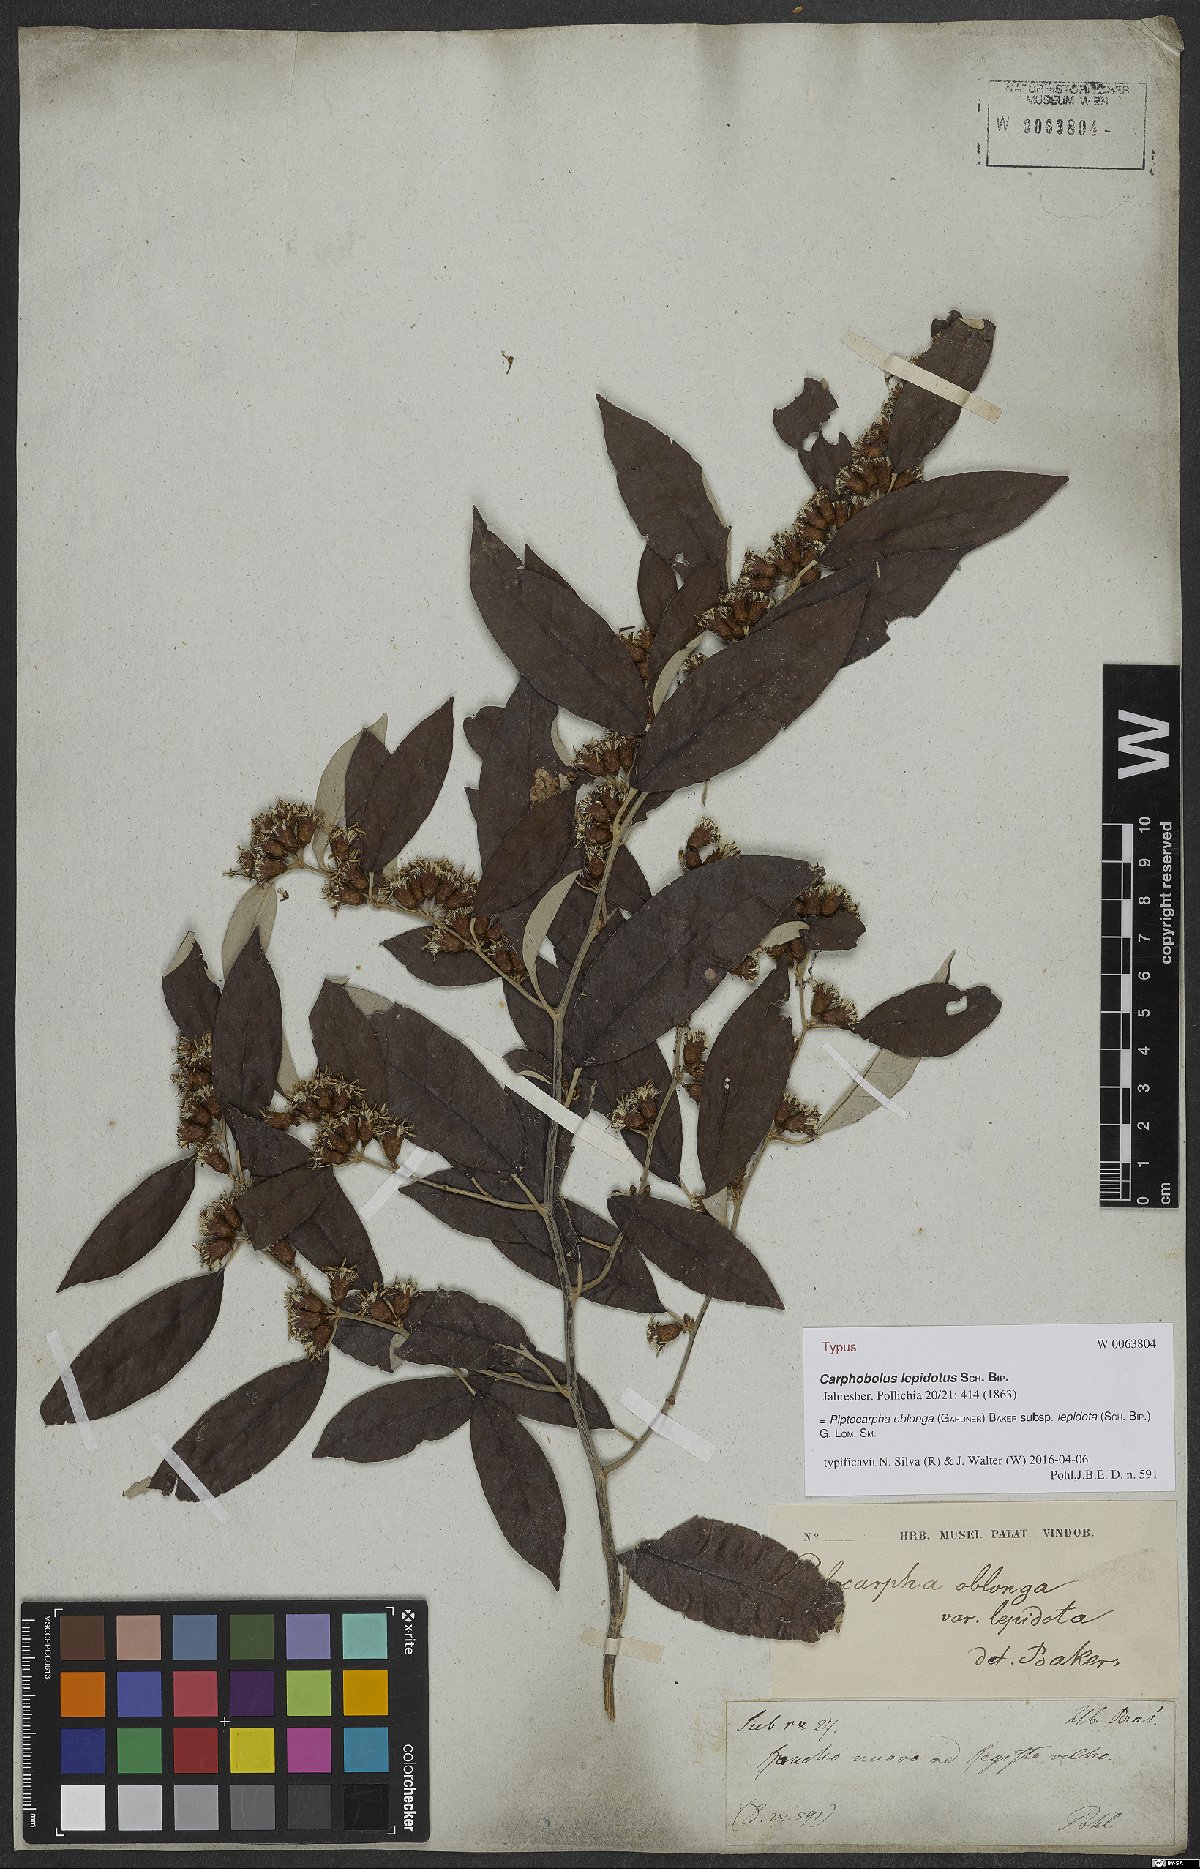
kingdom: Plantae
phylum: Tracheophyta
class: Magnoliopsida
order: Asterales
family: Asteraceae
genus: Piptocarpha
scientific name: Piptocarpha oblonga
